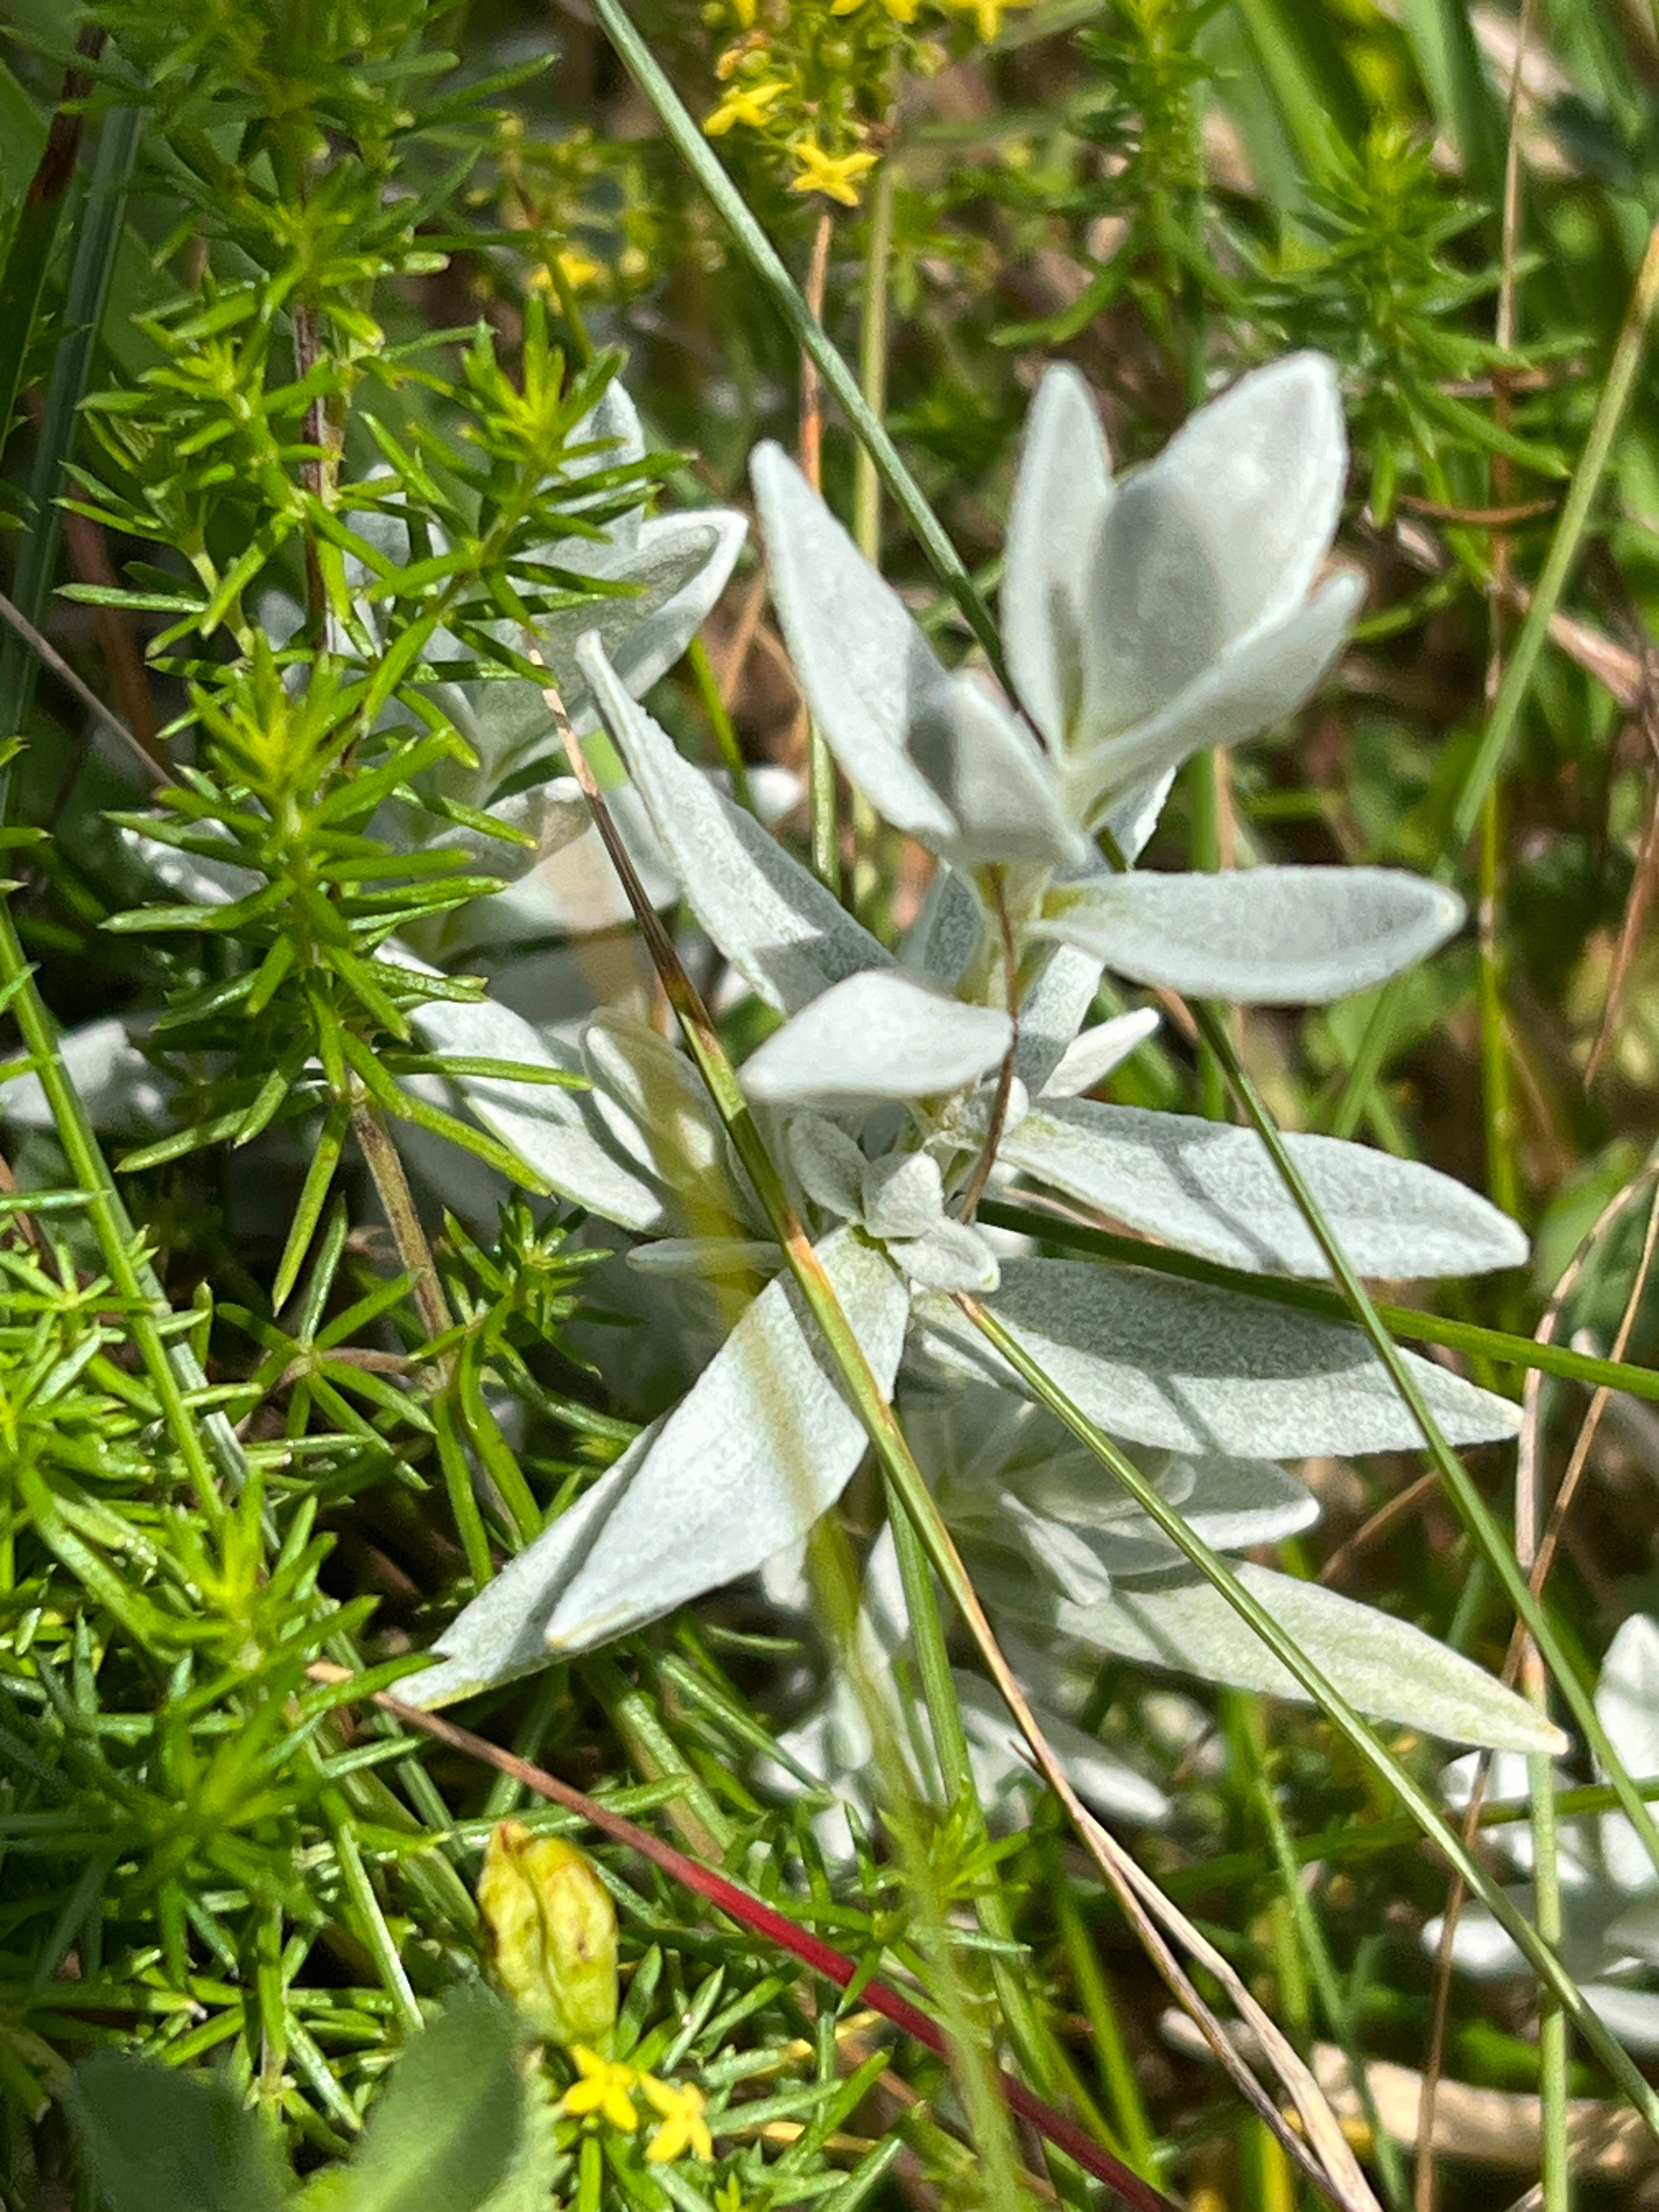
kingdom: Plantae
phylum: Tracheophyta
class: Magnoliopsida
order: Caryophyllales
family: Caryophyllaceae
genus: Cerastium
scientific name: Cerastium tomentosum
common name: Filtet hønsetarm
